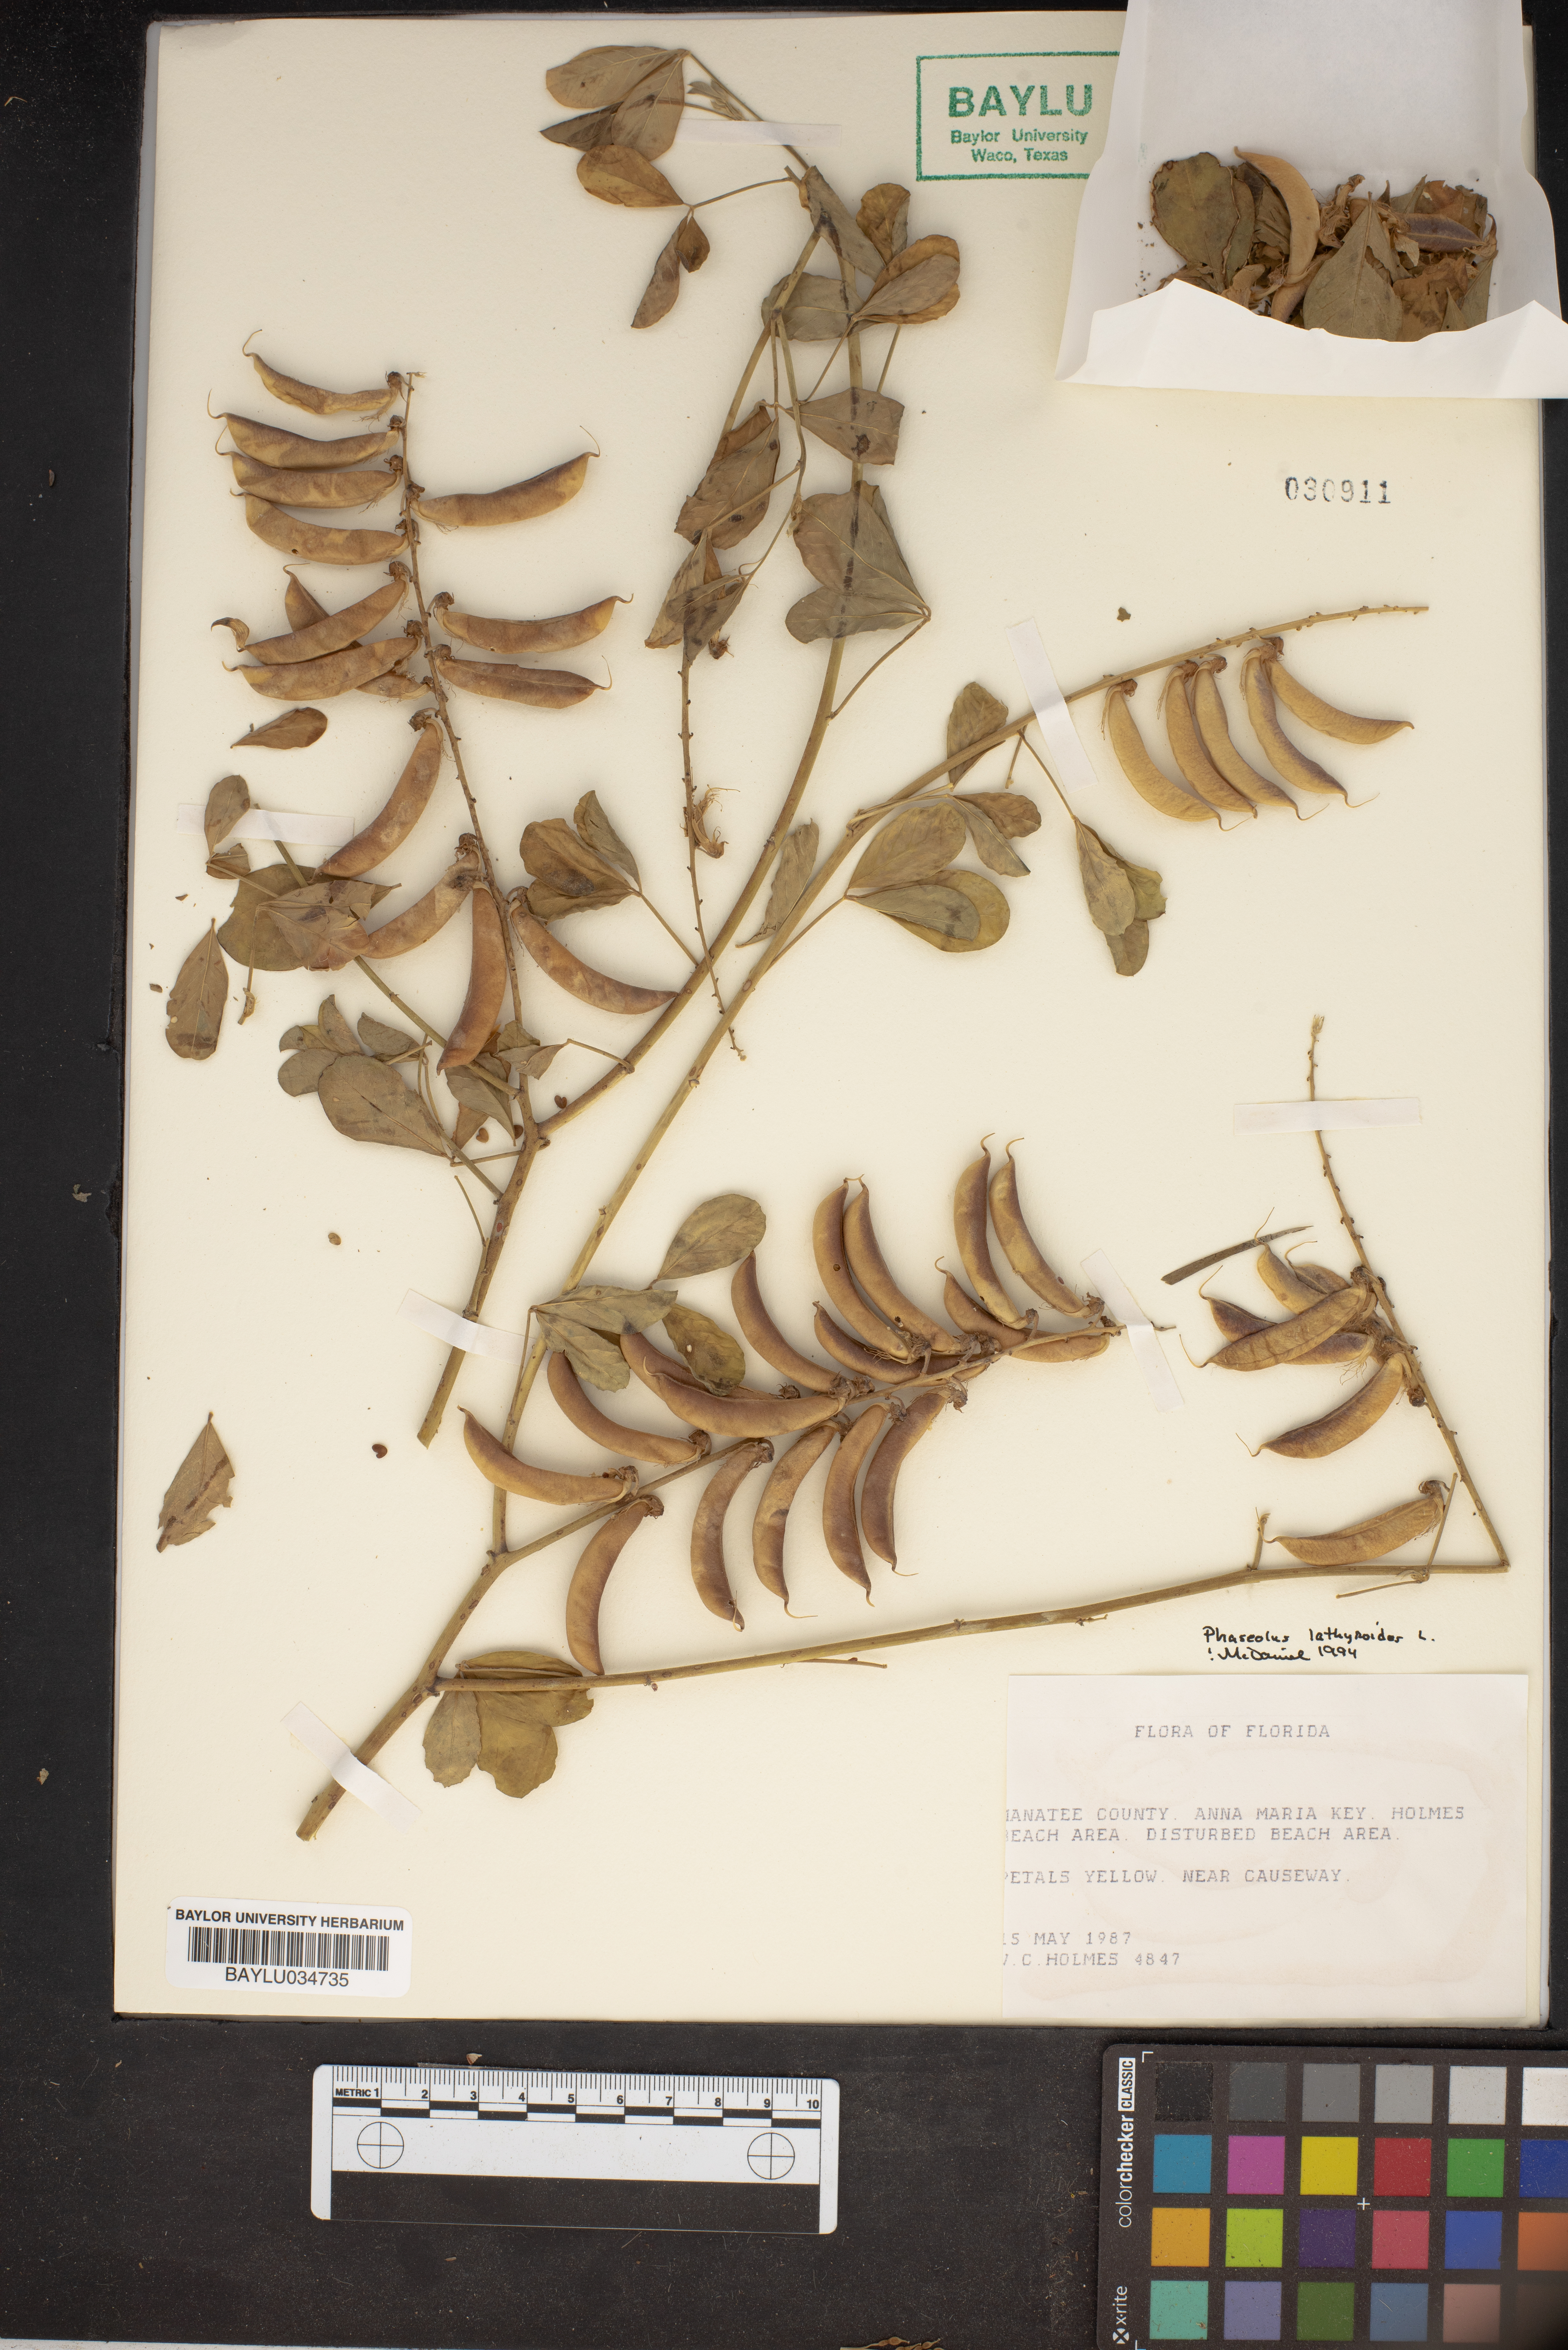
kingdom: Plantae
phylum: Tracheophyta
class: Magnoliopsida
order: Fabales
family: Fabaceae
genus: Macroptilium
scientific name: Macroptilium lathyroides
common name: Wild bushbean
